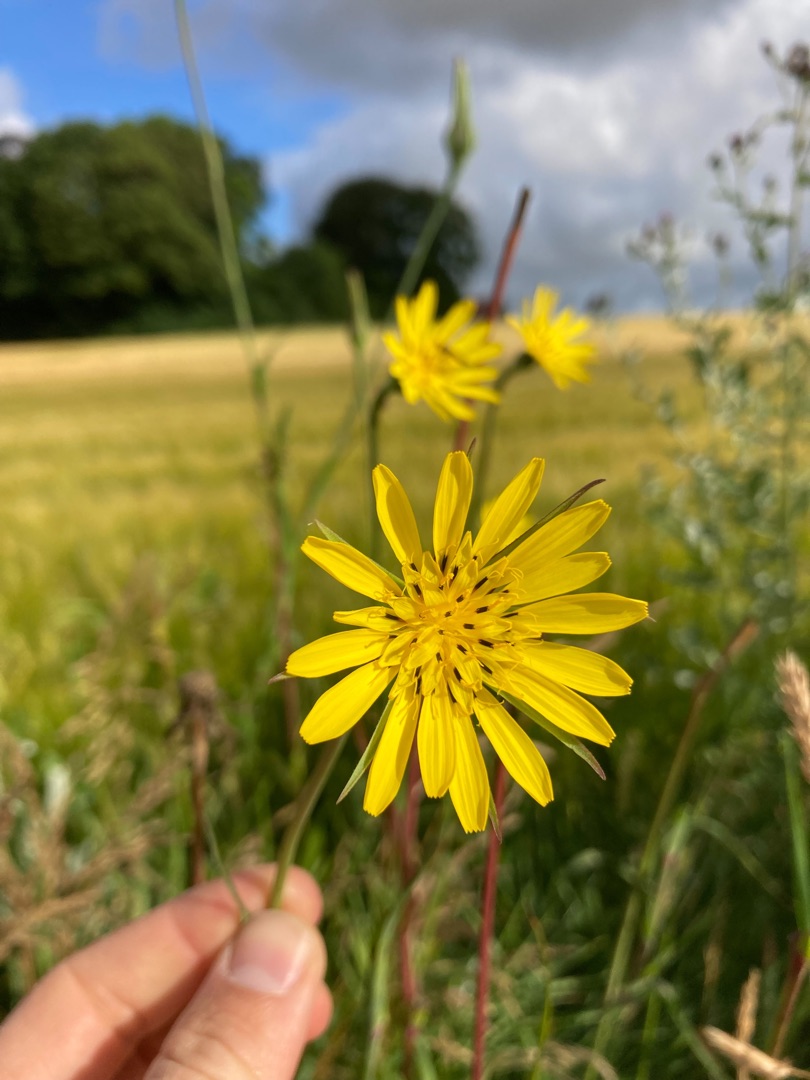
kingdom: Plantae
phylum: Tracheophyta
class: Magnoliopsida
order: Asterales
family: Asteraceae
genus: Tragopogon
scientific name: Tragopogon pratensis
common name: Eng-gedeskæg
